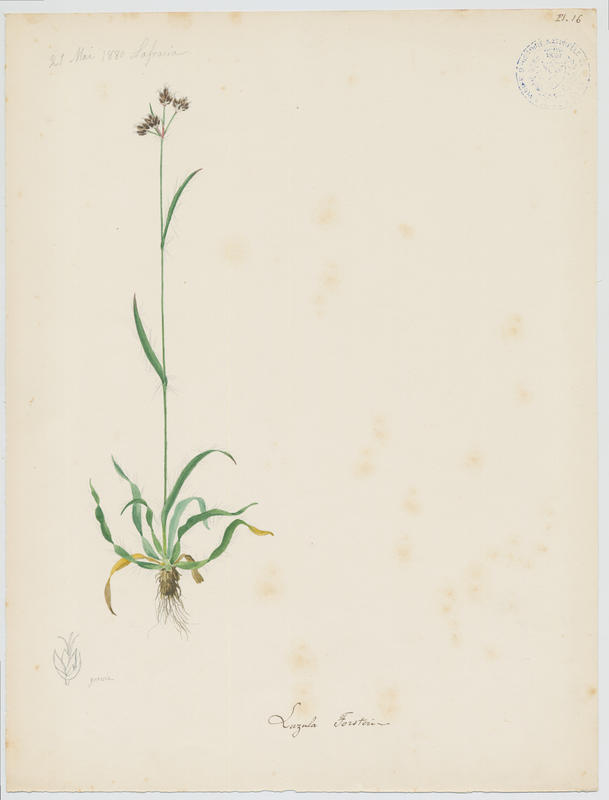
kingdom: Plantae
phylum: Tracheophyta
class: Liliopsida
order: Poales
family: Juncaceae
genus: Luzula
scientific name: Luzula forsteri
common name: Southern wood-rush
